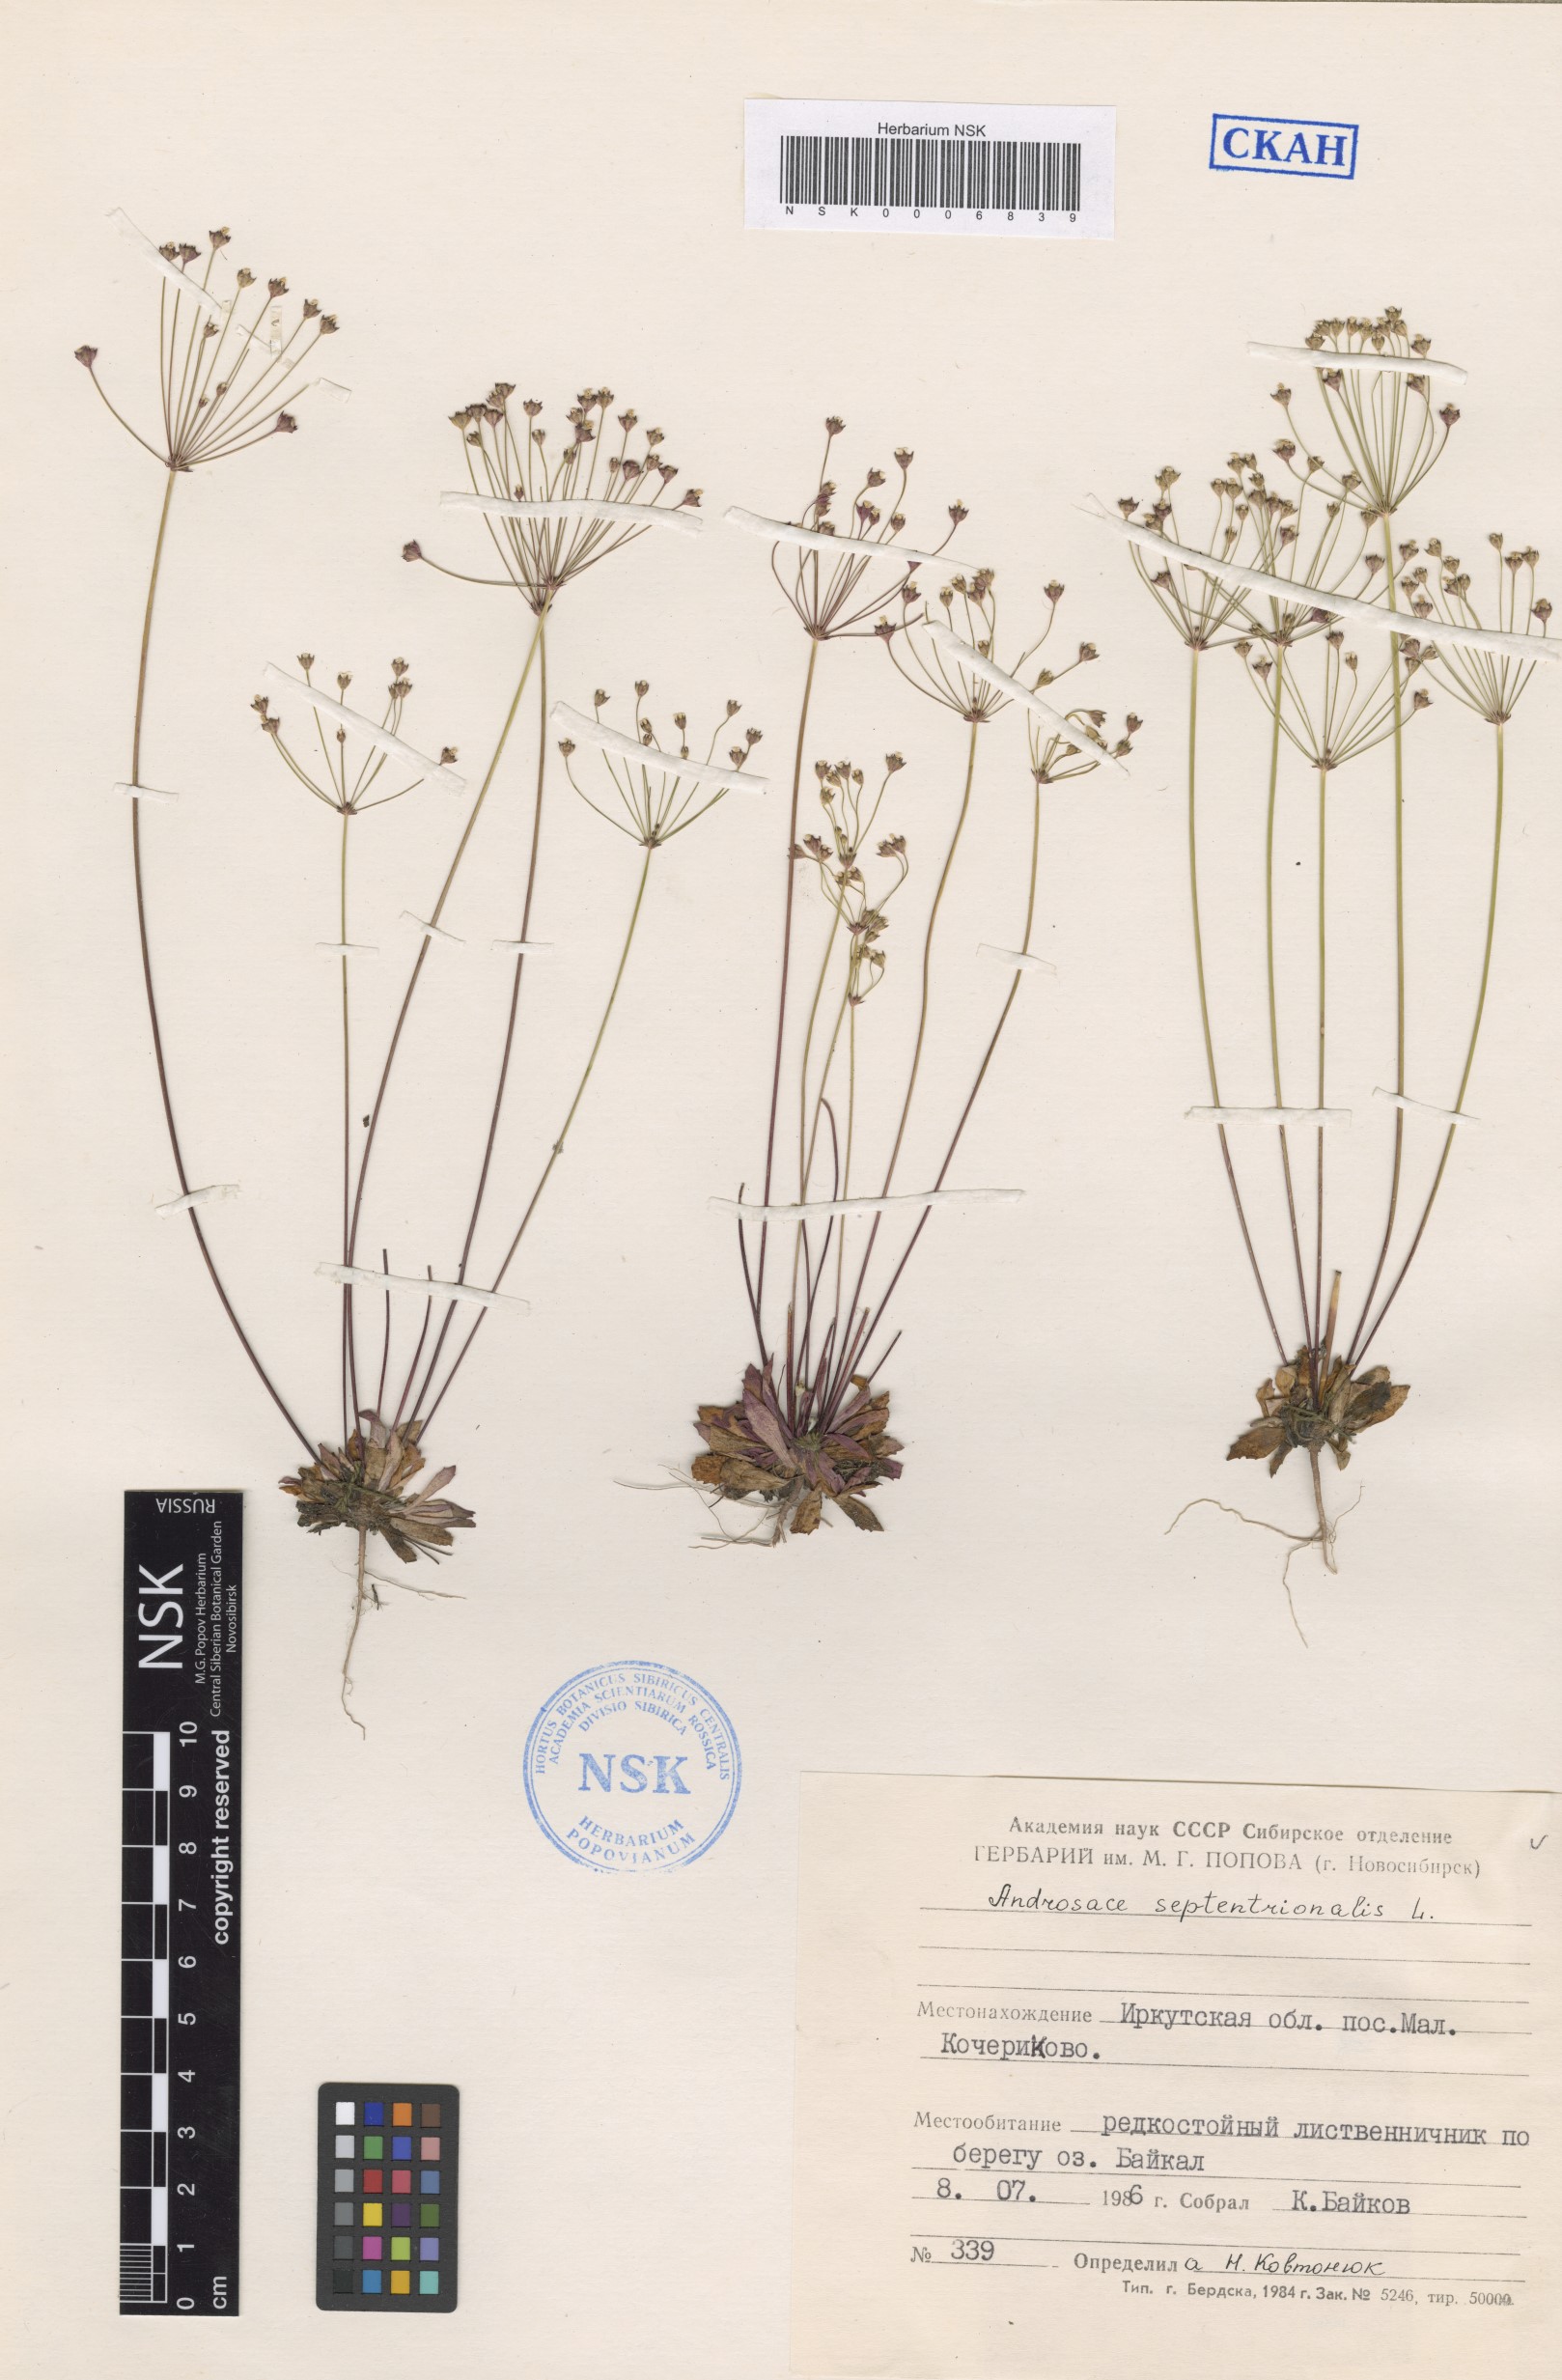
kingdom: Plantae
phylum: Tracheophyta
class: Magnoliopsida
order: Ericales
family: Primulaceae
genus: Androsace
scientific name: Androsace septentrionalis
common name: Hairy northern fairy-candelabra
